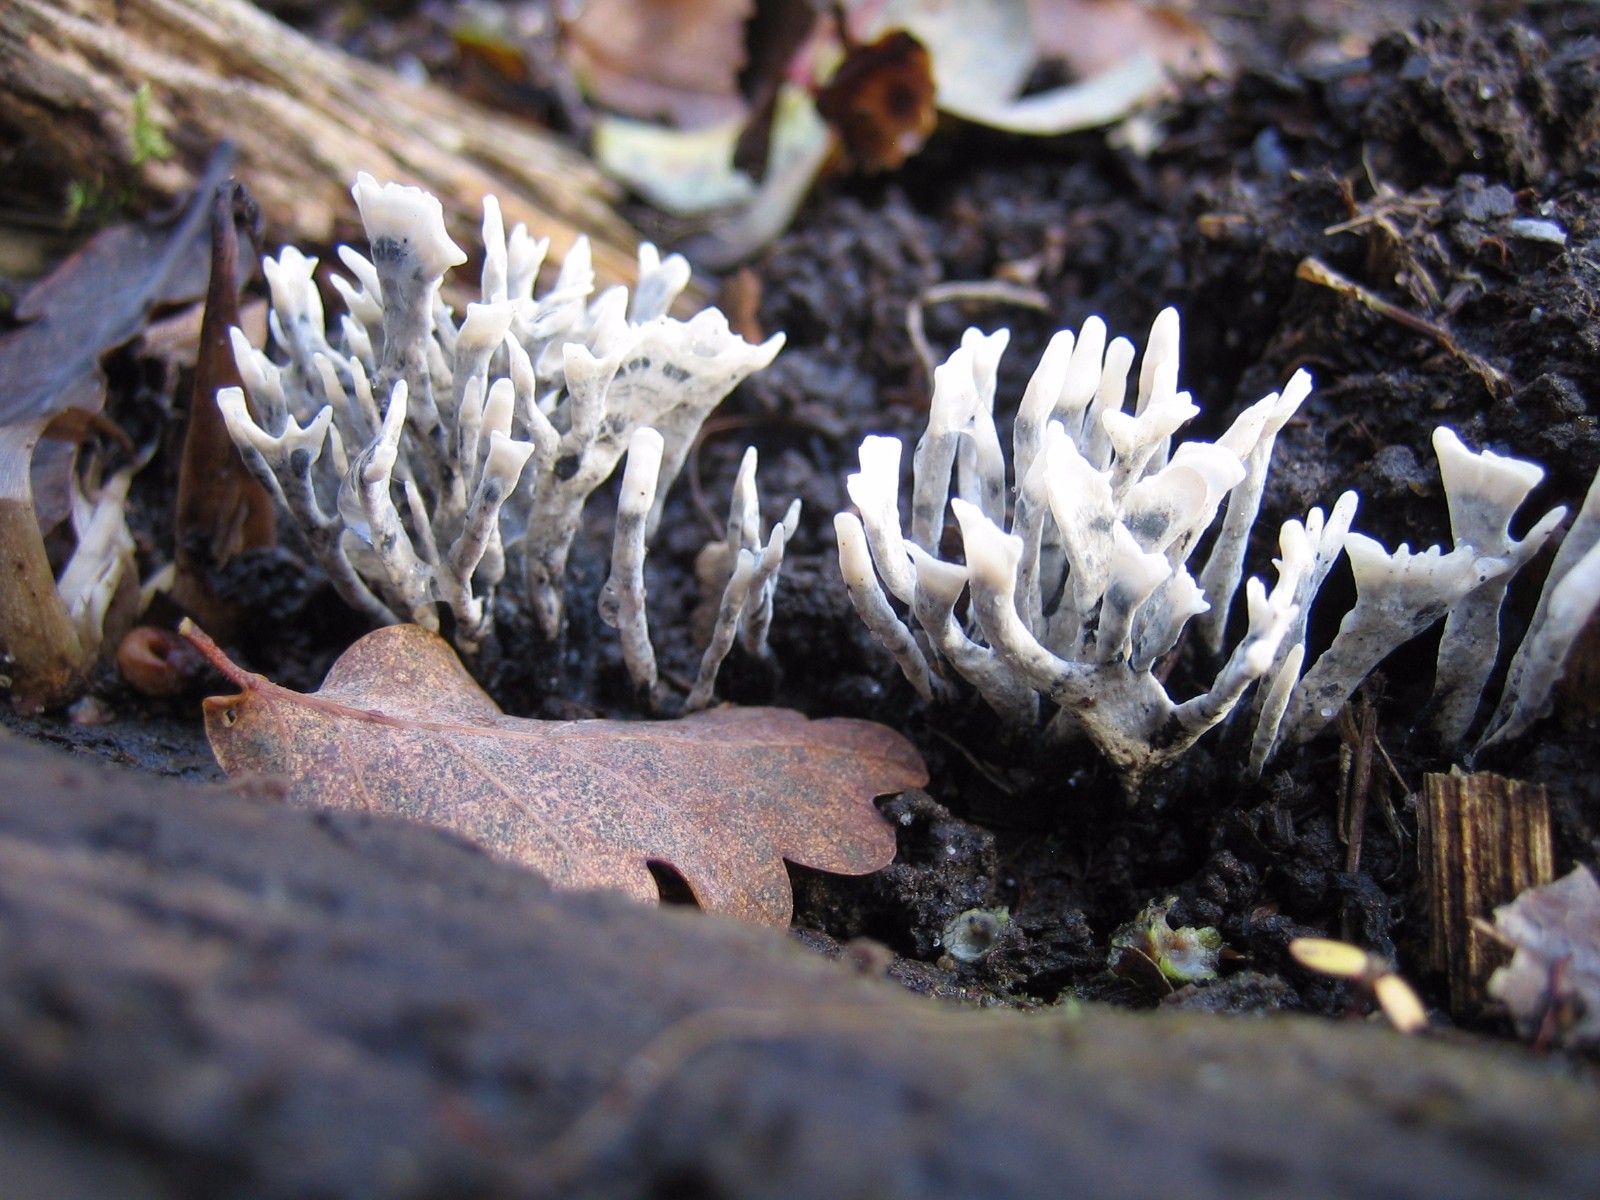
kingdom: Fungi
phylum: Ascomycota
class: Sordariomycetes
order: Xylariales
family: Xylariaceae
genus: Xylaria
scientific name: Xylaria hypoxylon
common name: grenet stødsvamp
